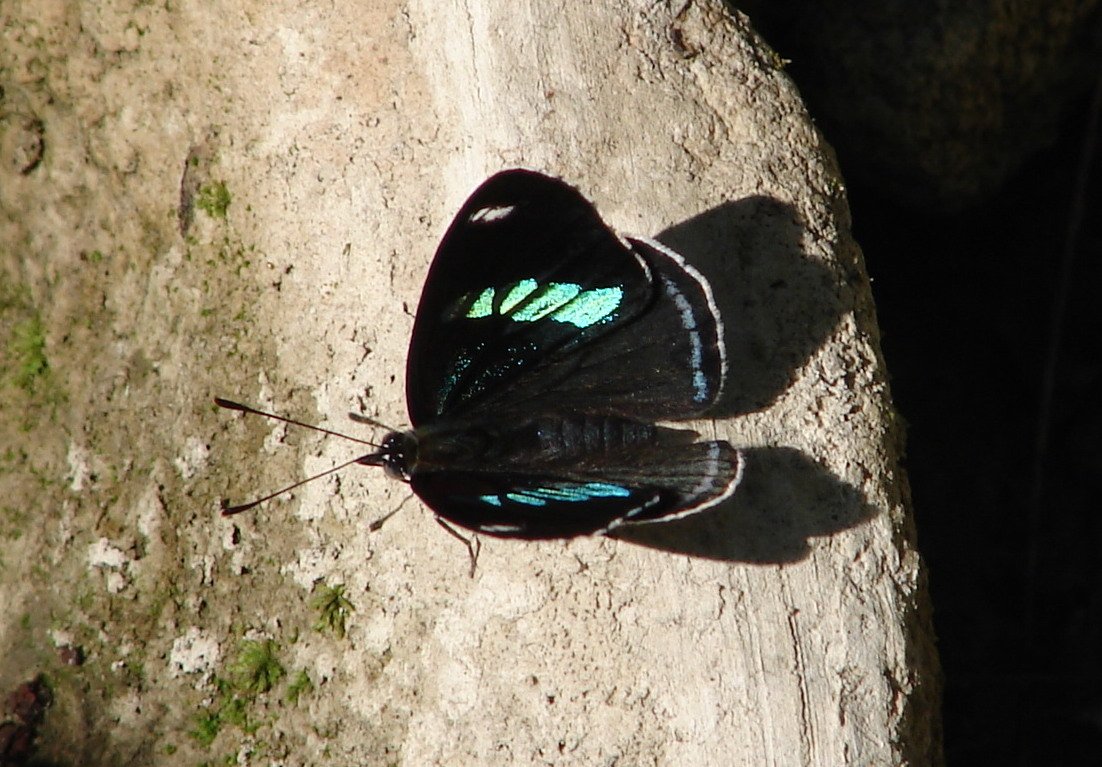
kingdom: Animalia
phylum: Arthropoda
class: Insecta
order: Lepidoptera
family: Nymphalidae
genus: Diaethria
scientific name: Diaethria anna
